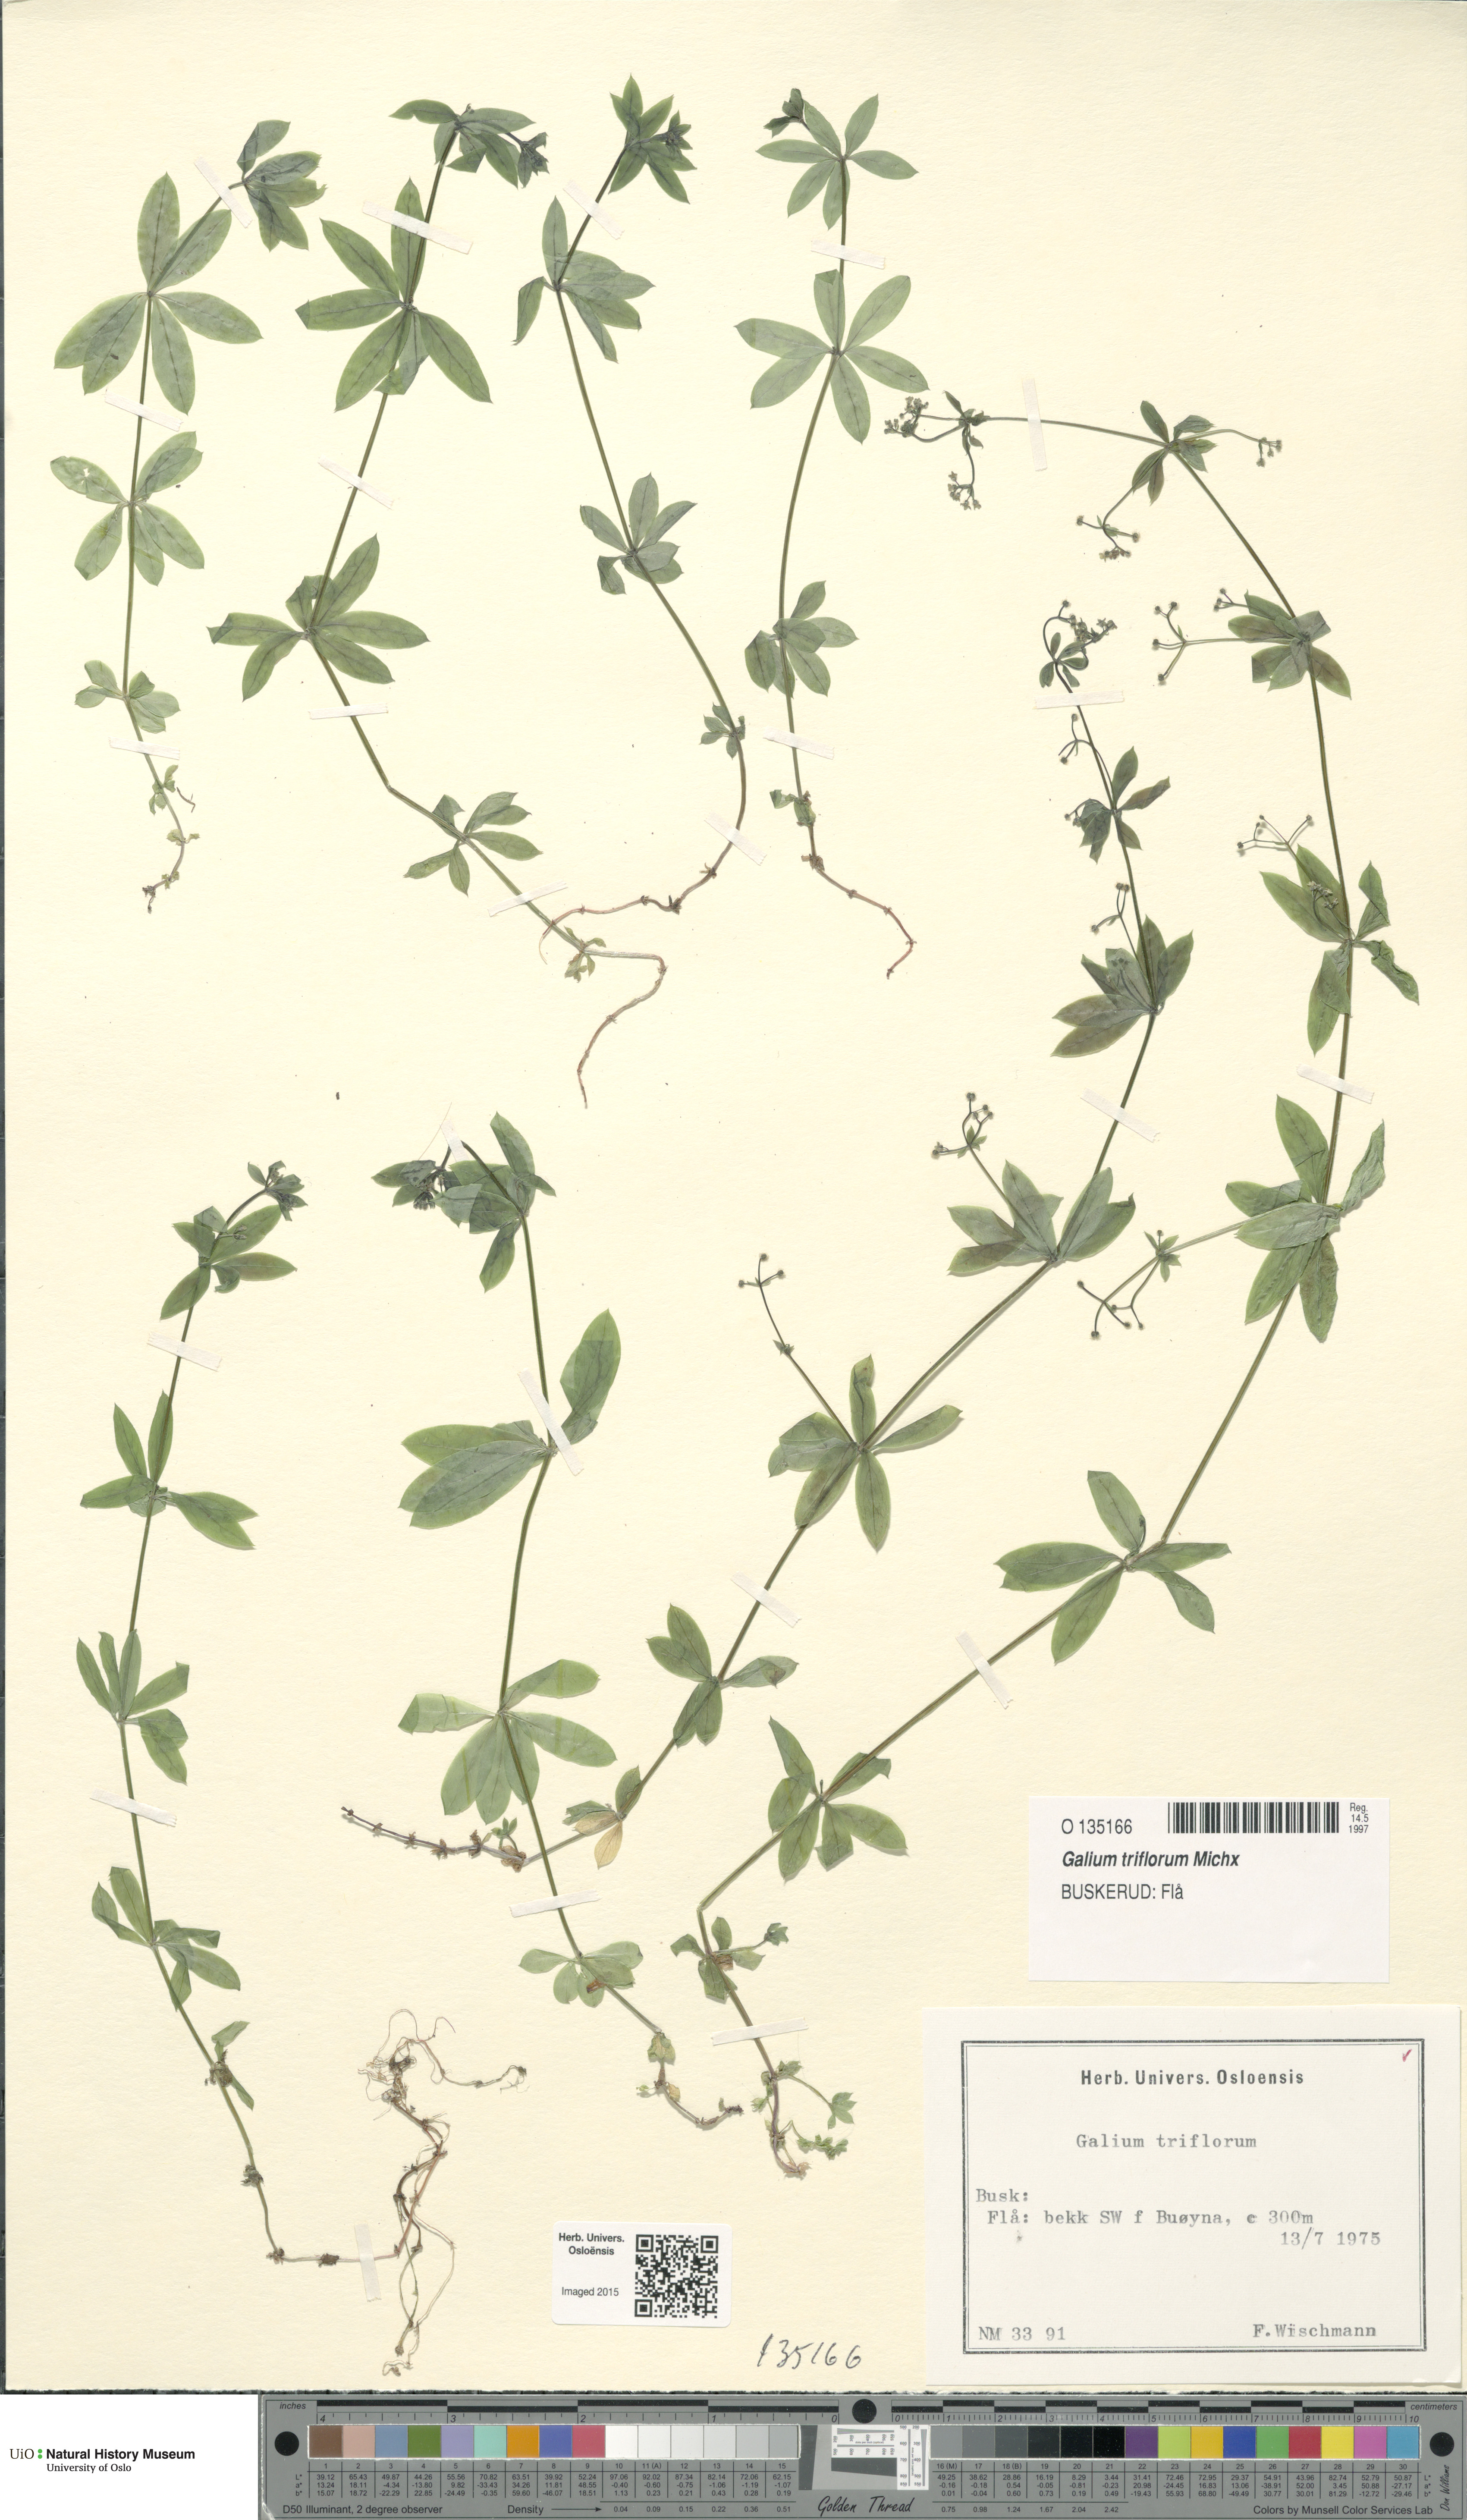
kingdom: Plantae
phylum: Tracheophyta
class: Magnoliopsida
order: Gentianales
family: Rubiaceae
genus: Galium
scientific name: Galium triflorum
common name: Fragrant bedstraw
